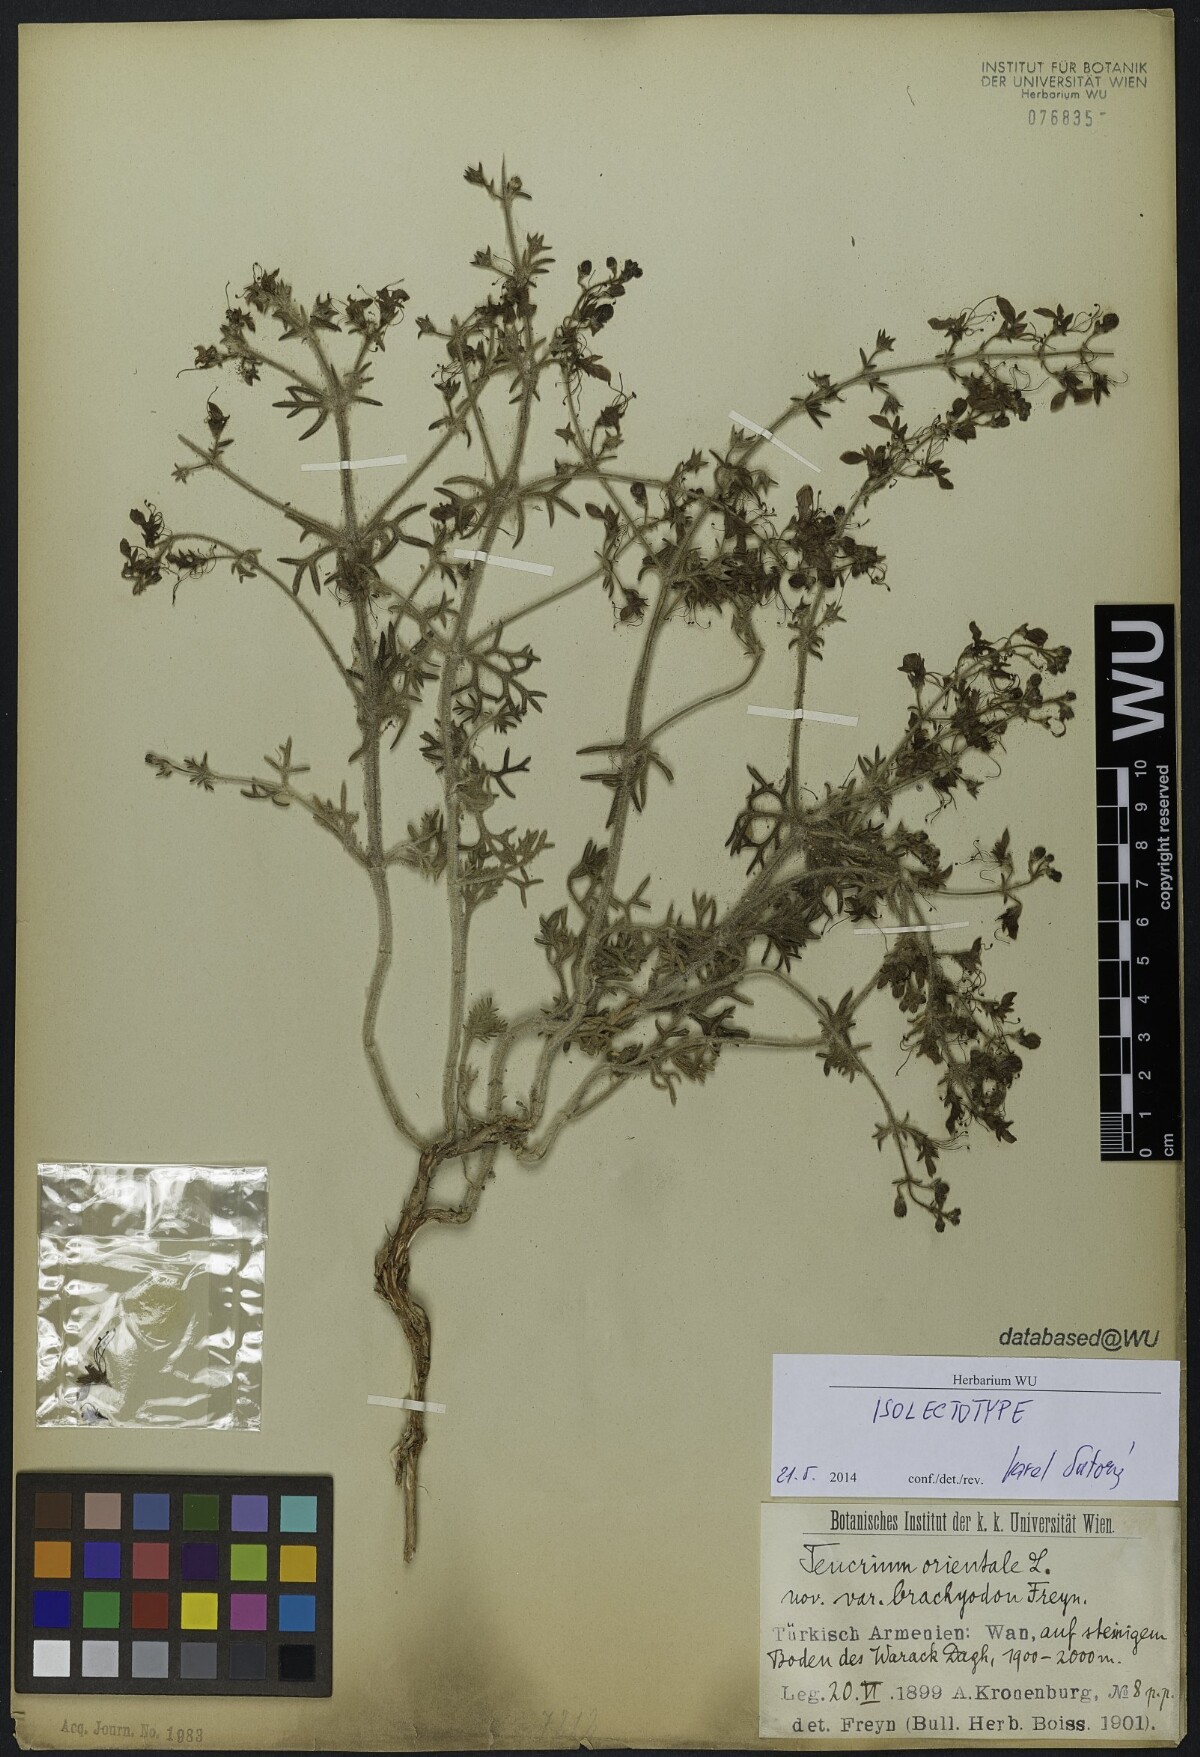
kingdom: Plantae
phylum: Tracheophyta
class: Magnoliopsida
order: Lamiales
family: Lamiaceae
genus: Teucrium
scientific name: Teucrium orientale
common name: Oriental germander
